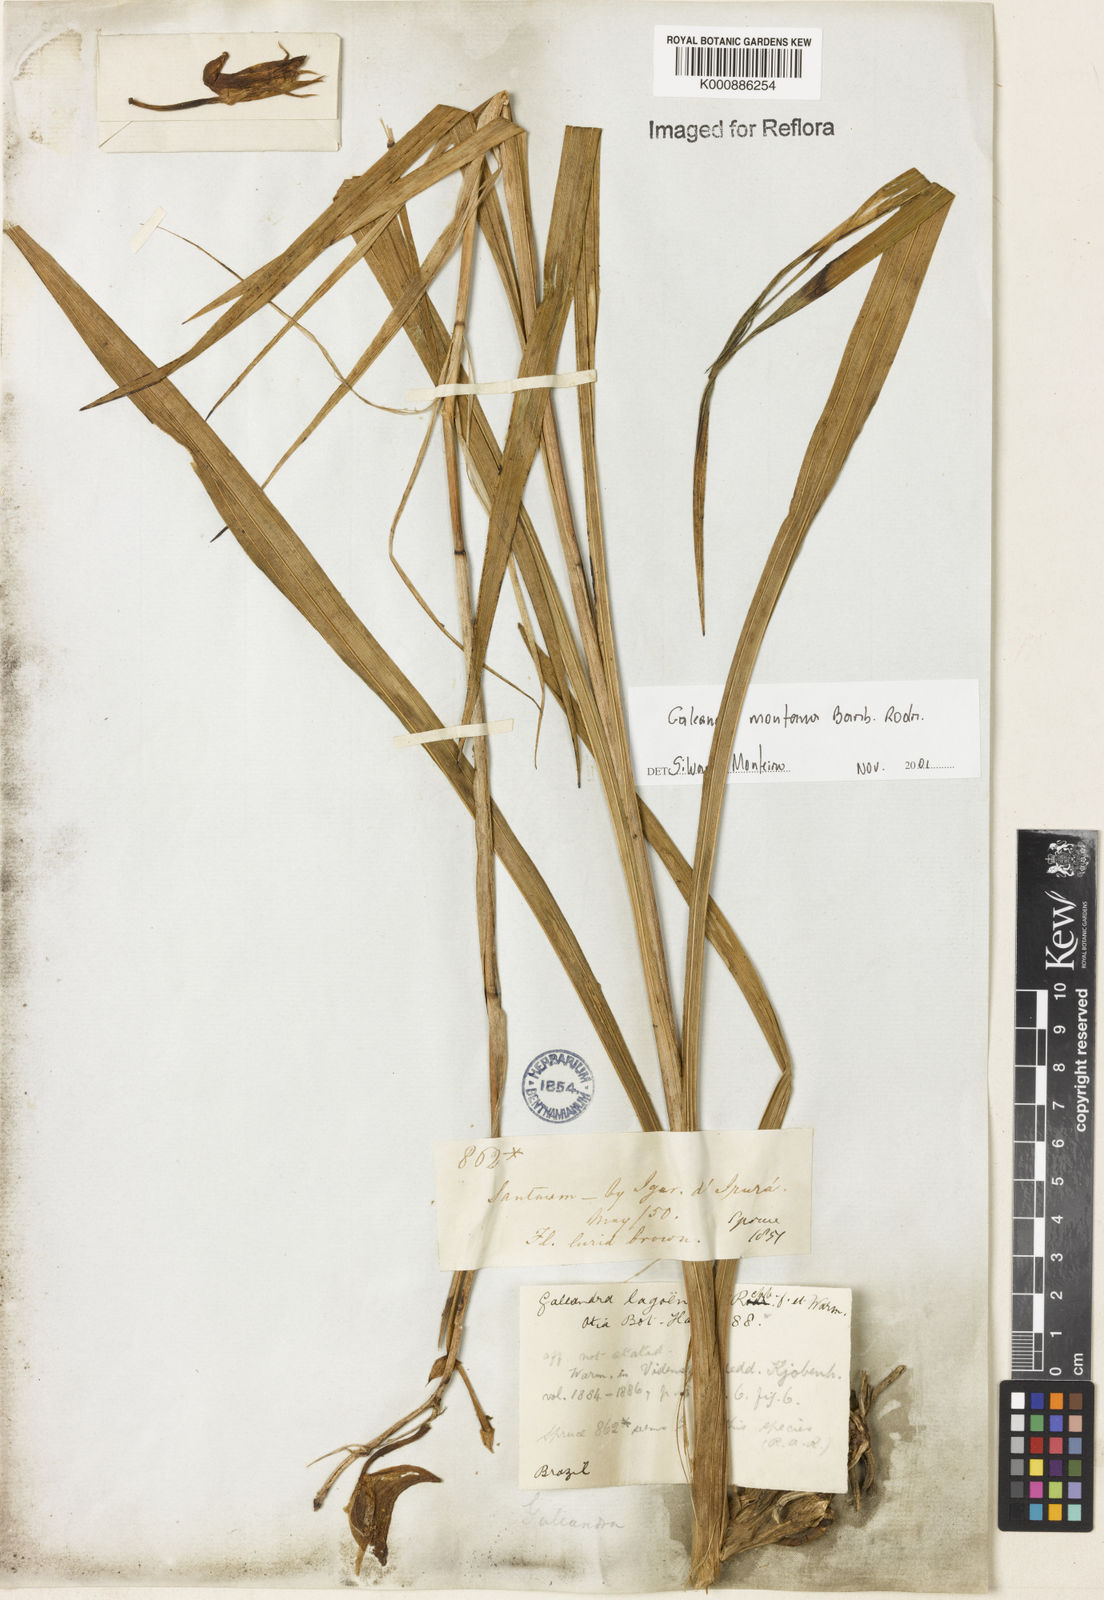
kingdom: Plantae
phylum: Tracheophyta
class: Liliopsida
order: Asparagales
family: Orchidaceae
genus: Galeandra
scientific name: Galeandra montana
